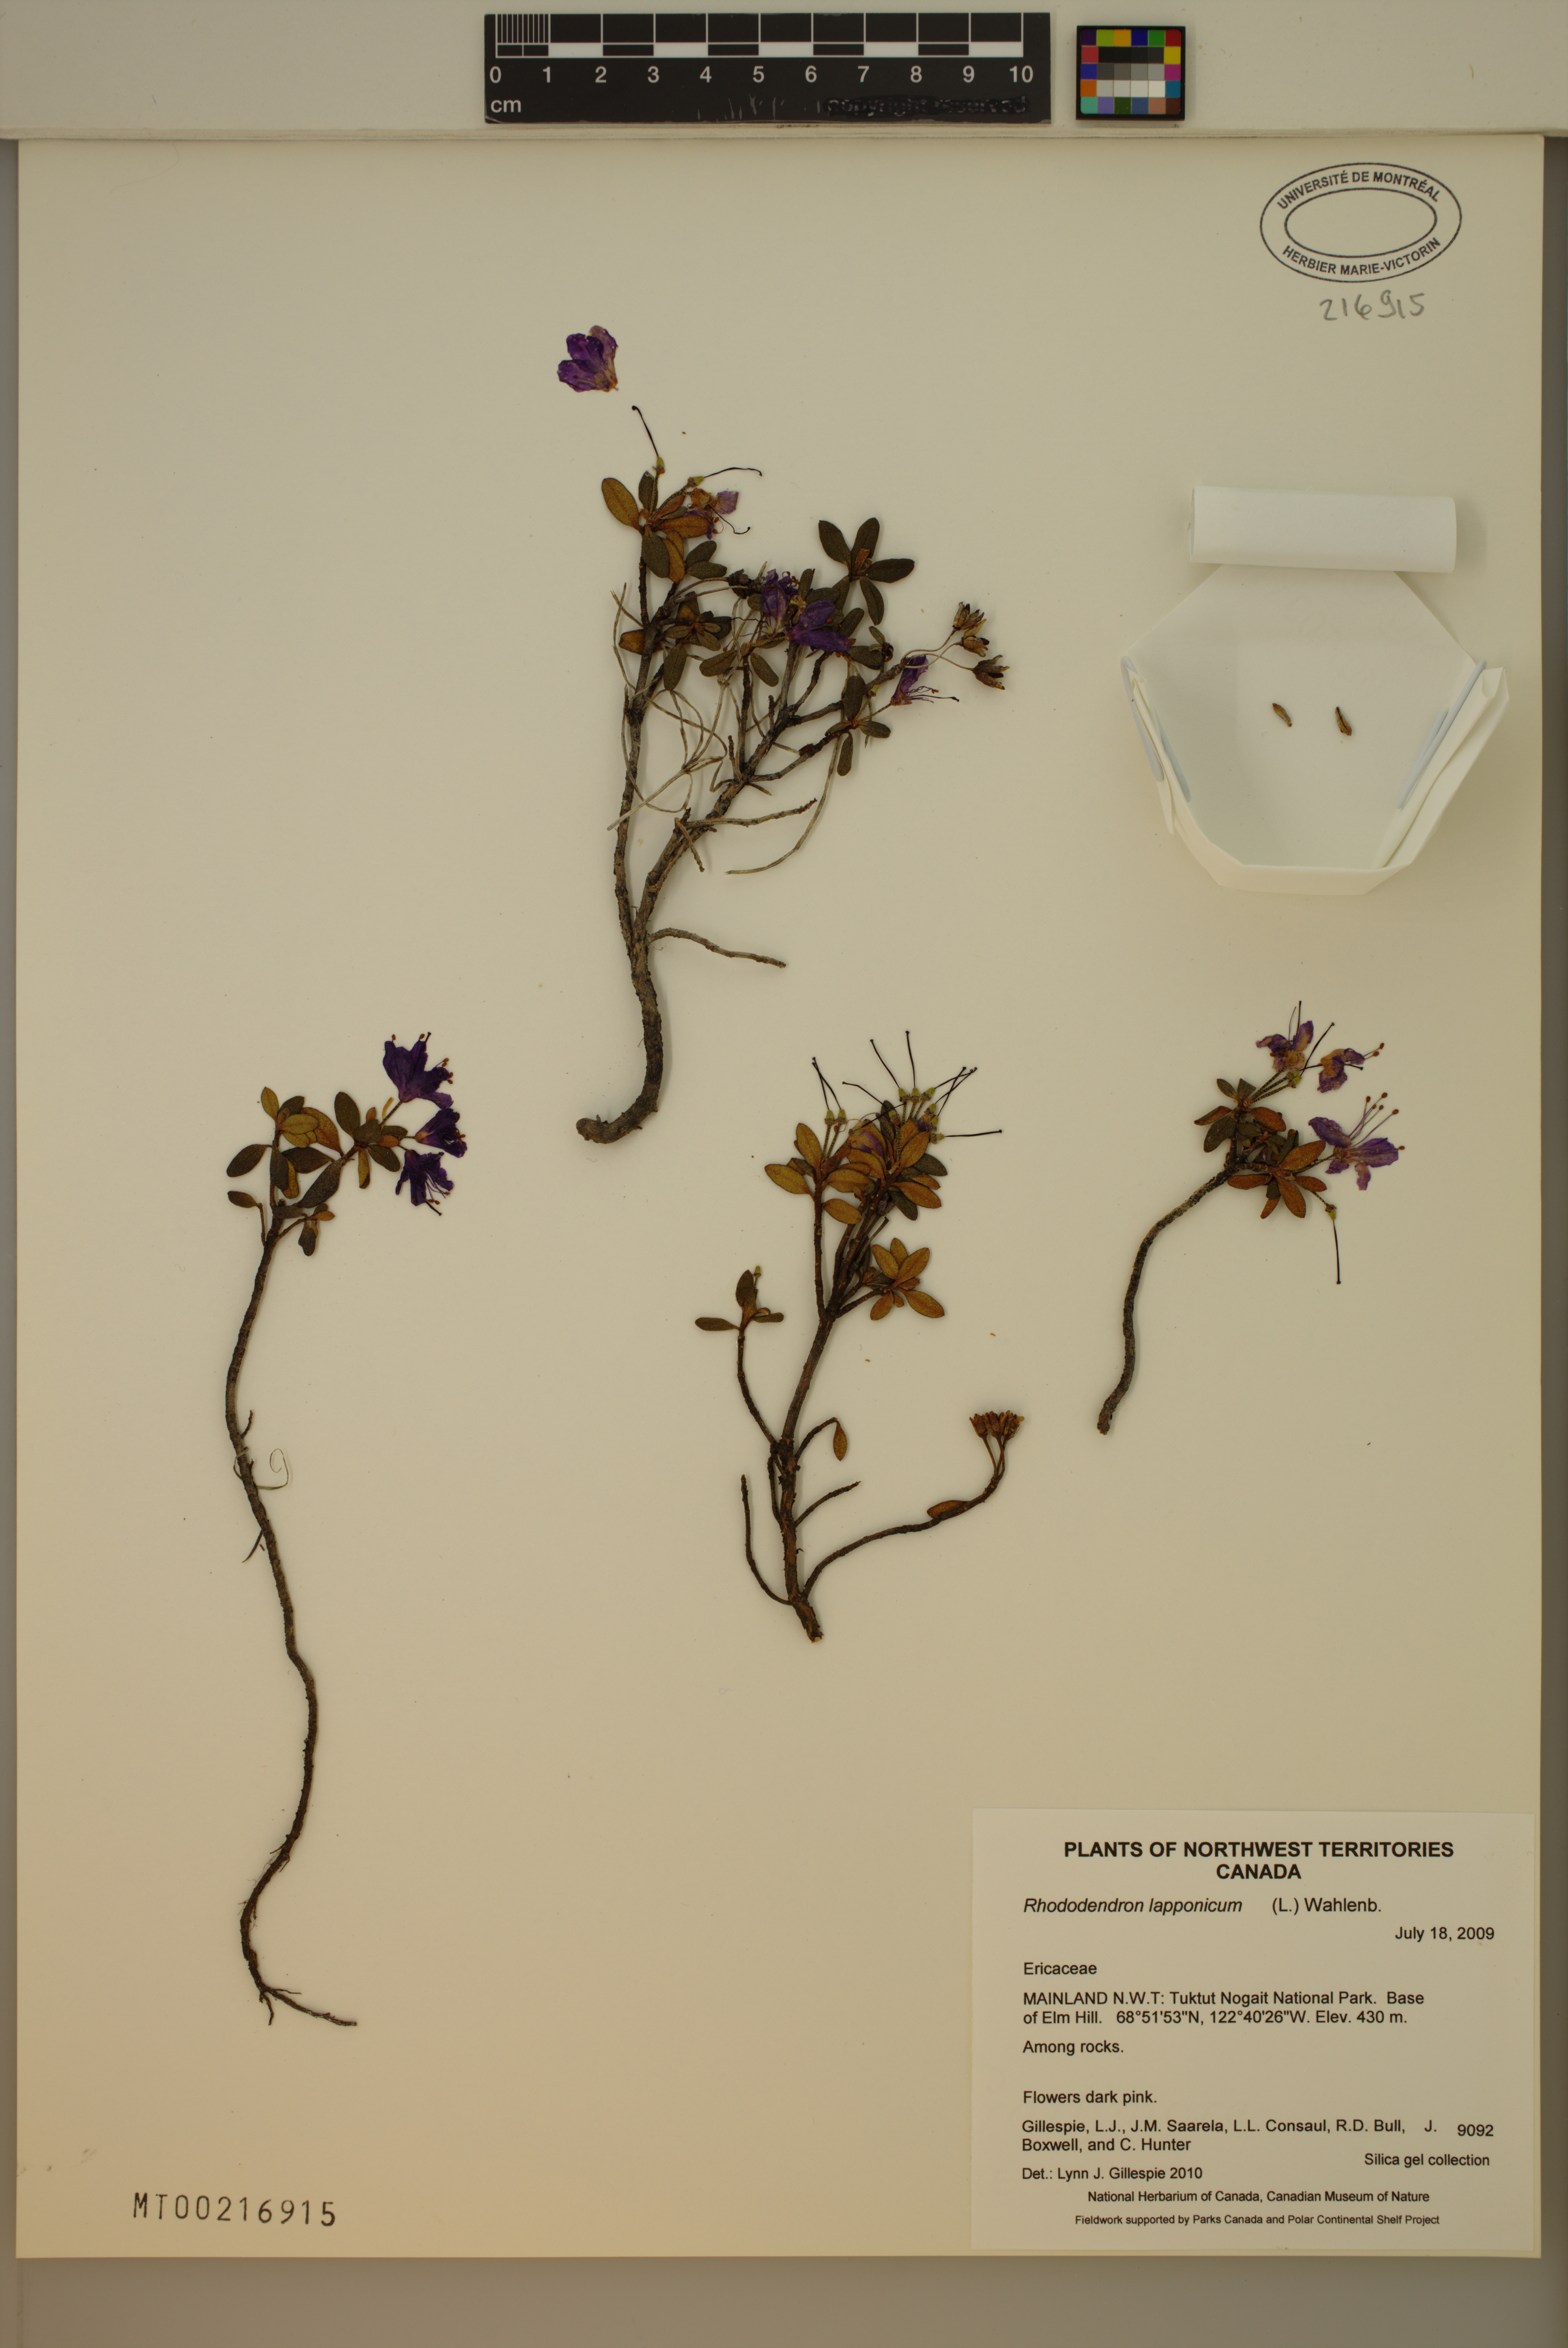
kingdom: Plantae
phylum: Tracheophyta
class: Magnoliopsida
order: Ericales
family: Ericaceae
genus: Rhododendron
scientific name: Rhododendron lapponicum
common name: Lapland rhododendron
